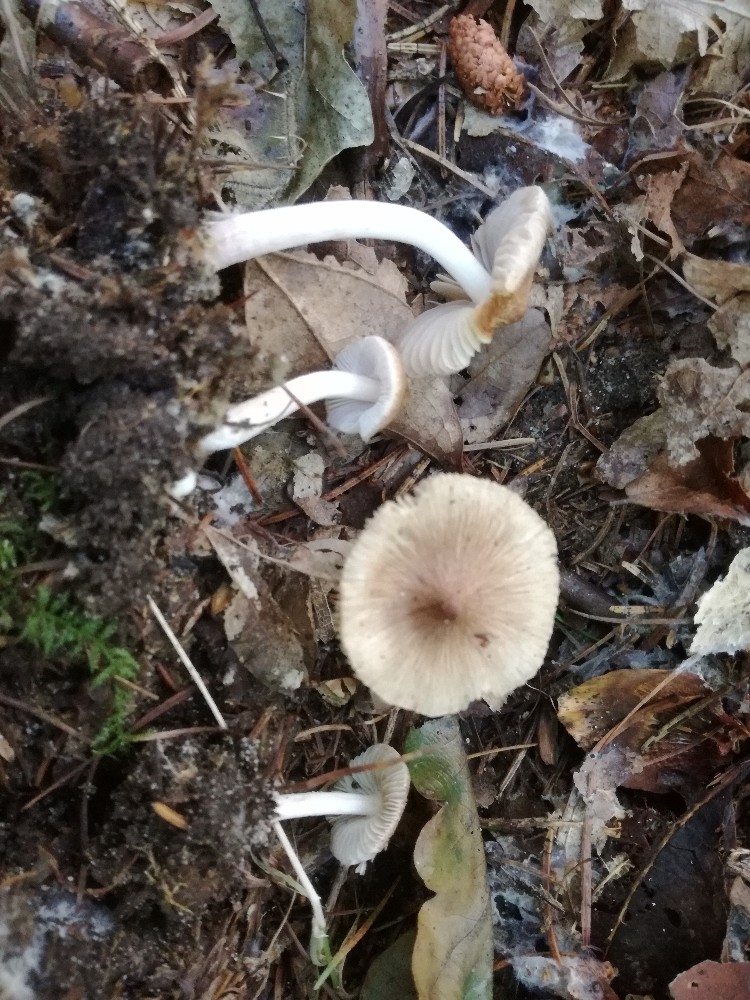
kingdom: Fungi
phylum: Basidiomycota
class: Agaricomycetes
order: Agaricales
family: Inocybaceae
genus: Inocybe
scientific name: Inocybe
